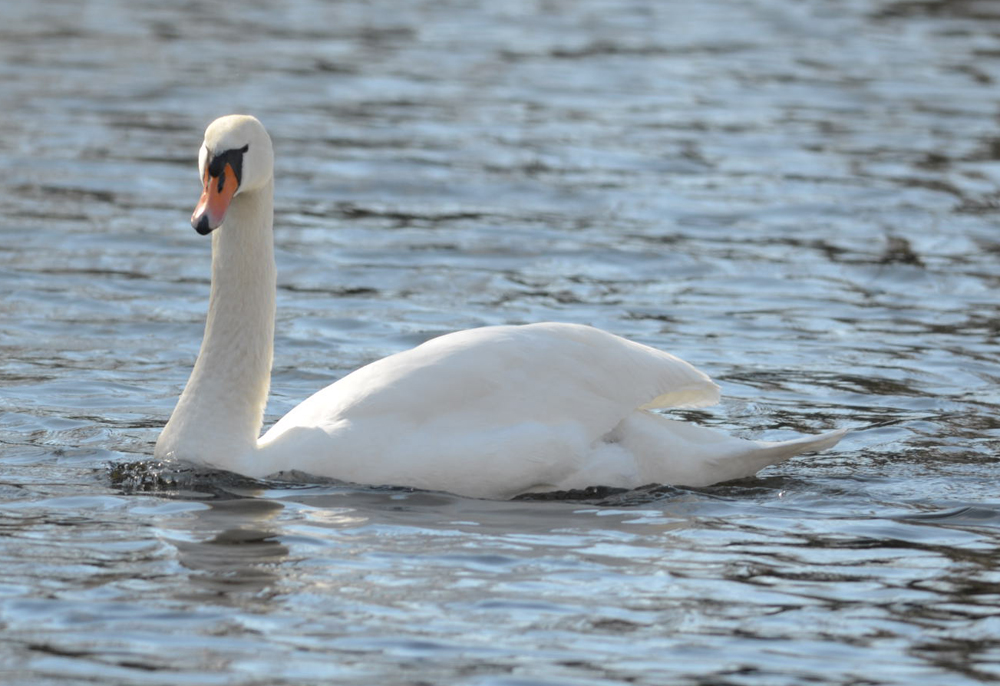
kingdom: Animalia
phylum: Chordata
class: Aves
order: Anseriformes
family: Anatidae
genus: Cygnus
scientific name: Cygnus olor
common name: Mute swan
